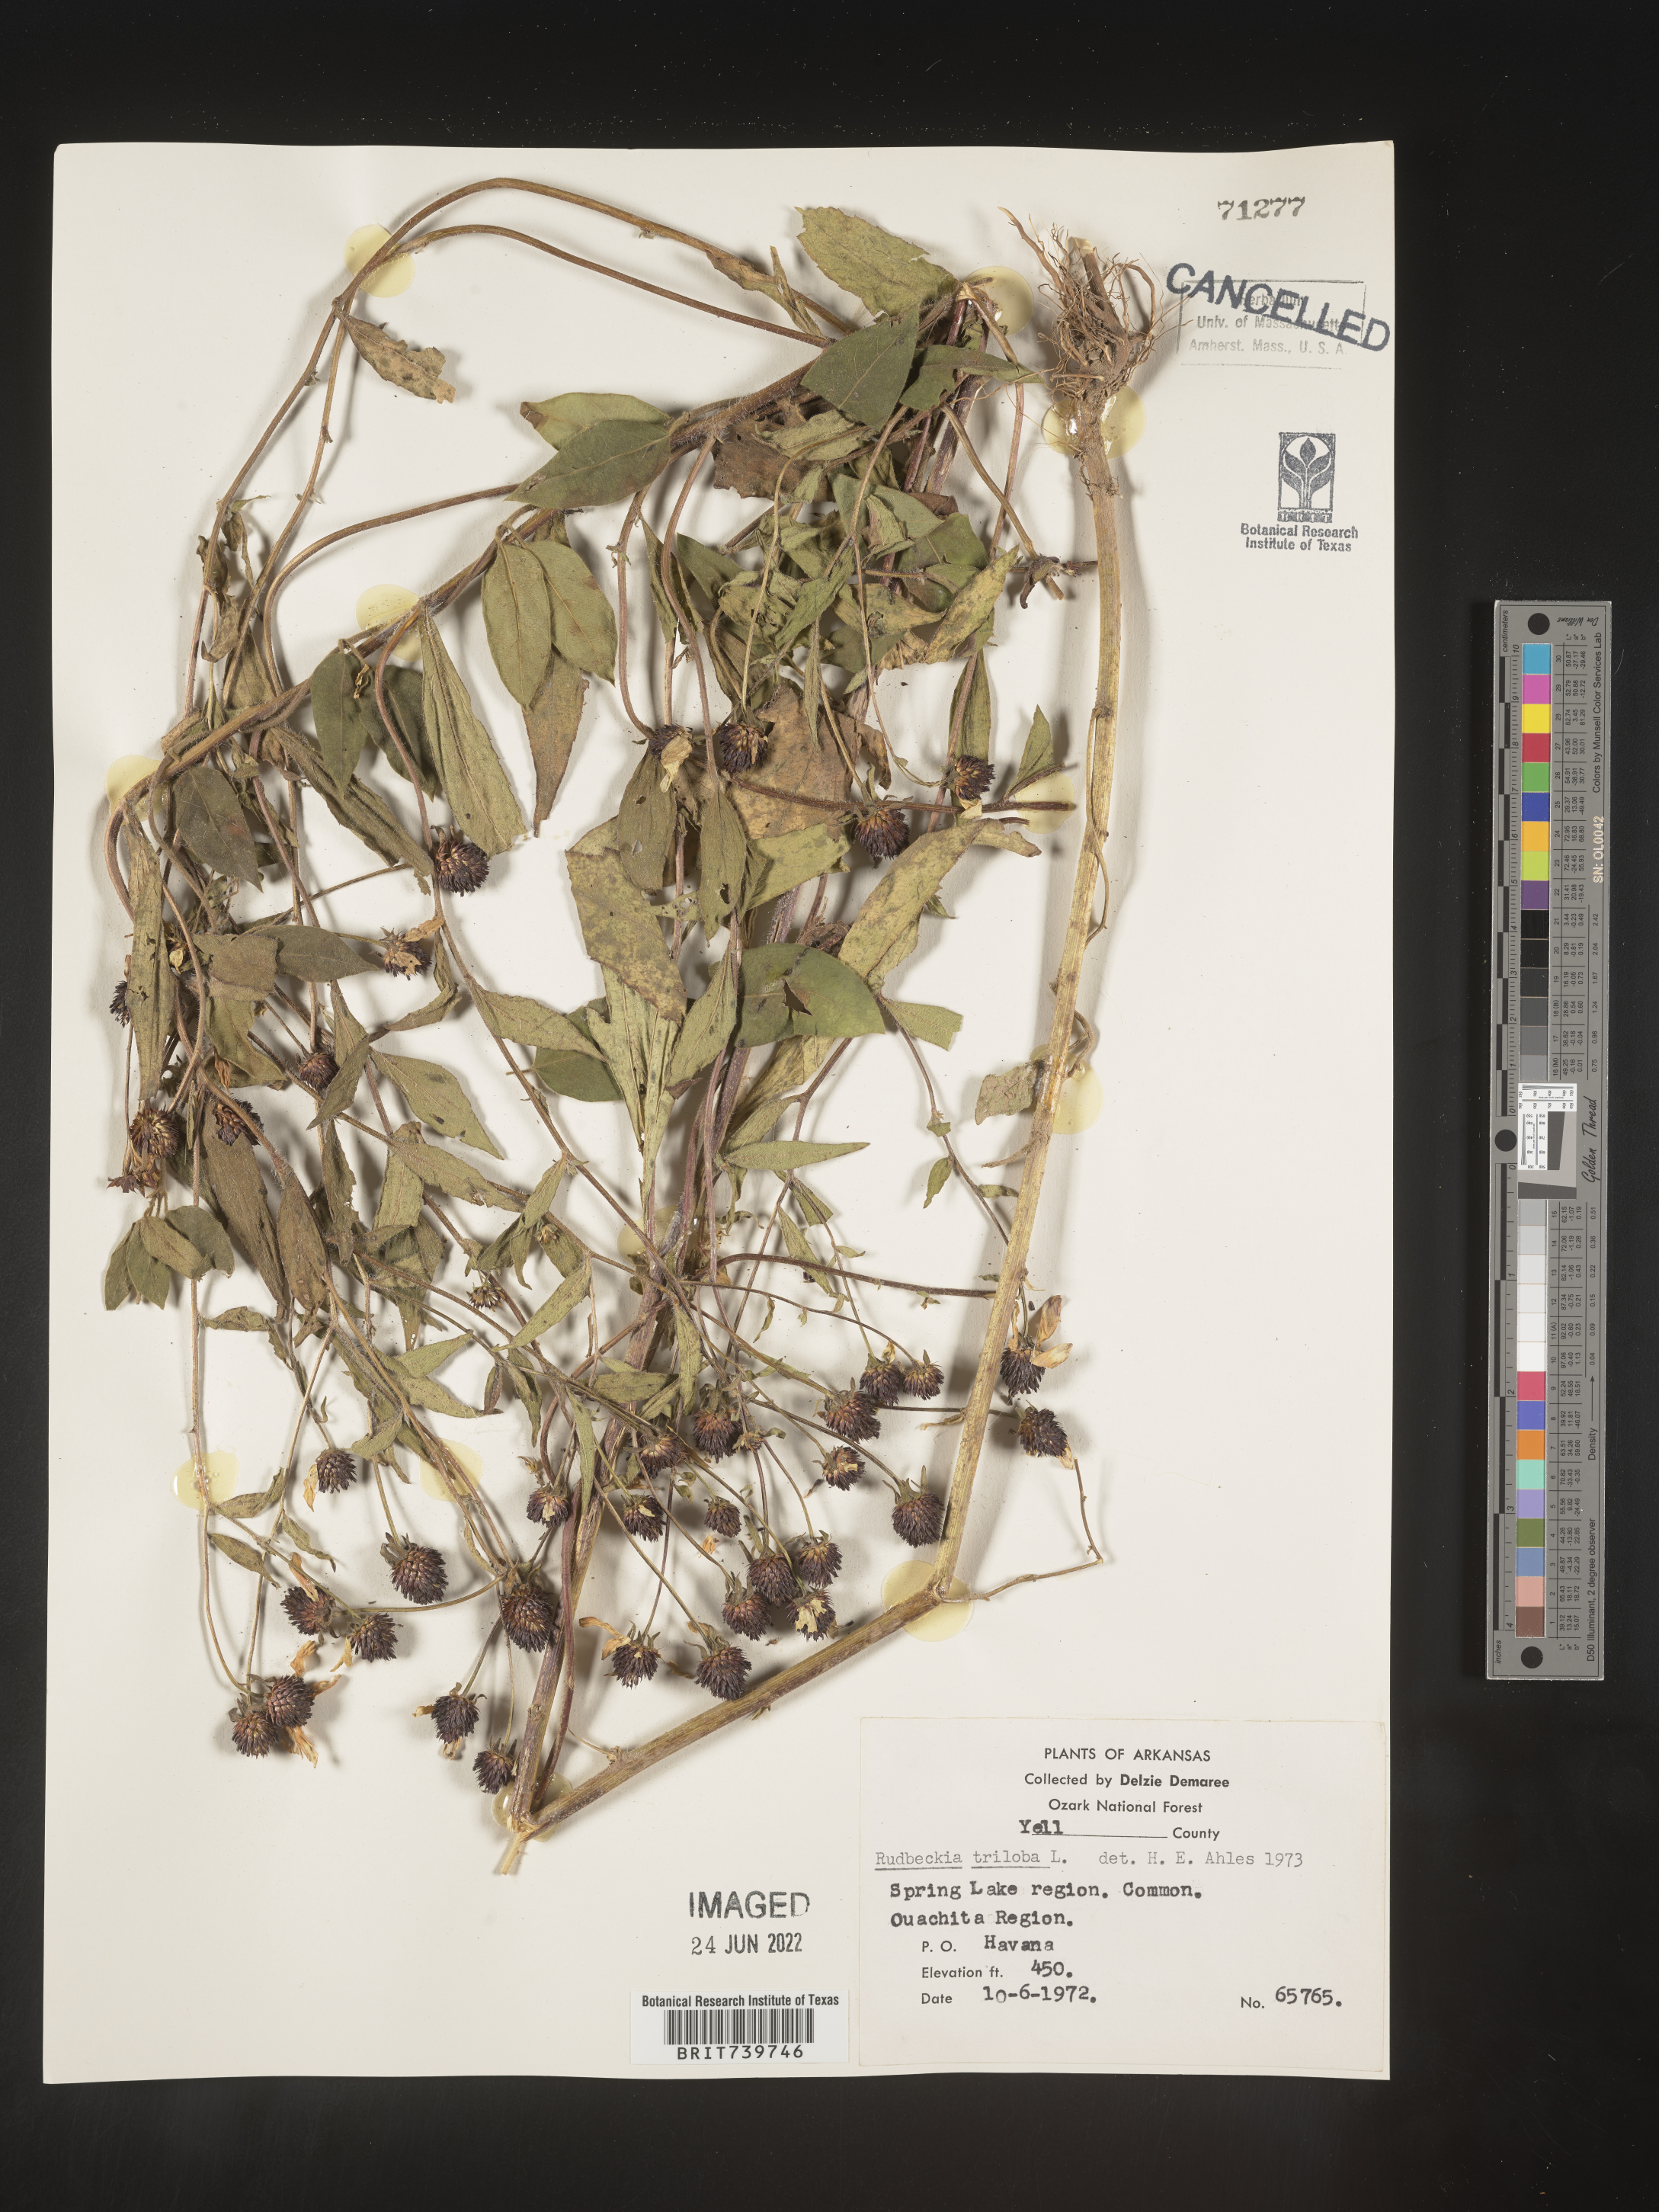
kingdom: Plantae
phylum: Tracheophyta
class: Magnoliopsida
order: Asterales
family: Asteraceae
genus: Rudbeckia
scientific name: Rudbeckia triloba
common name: Thin-leaved coneflower
